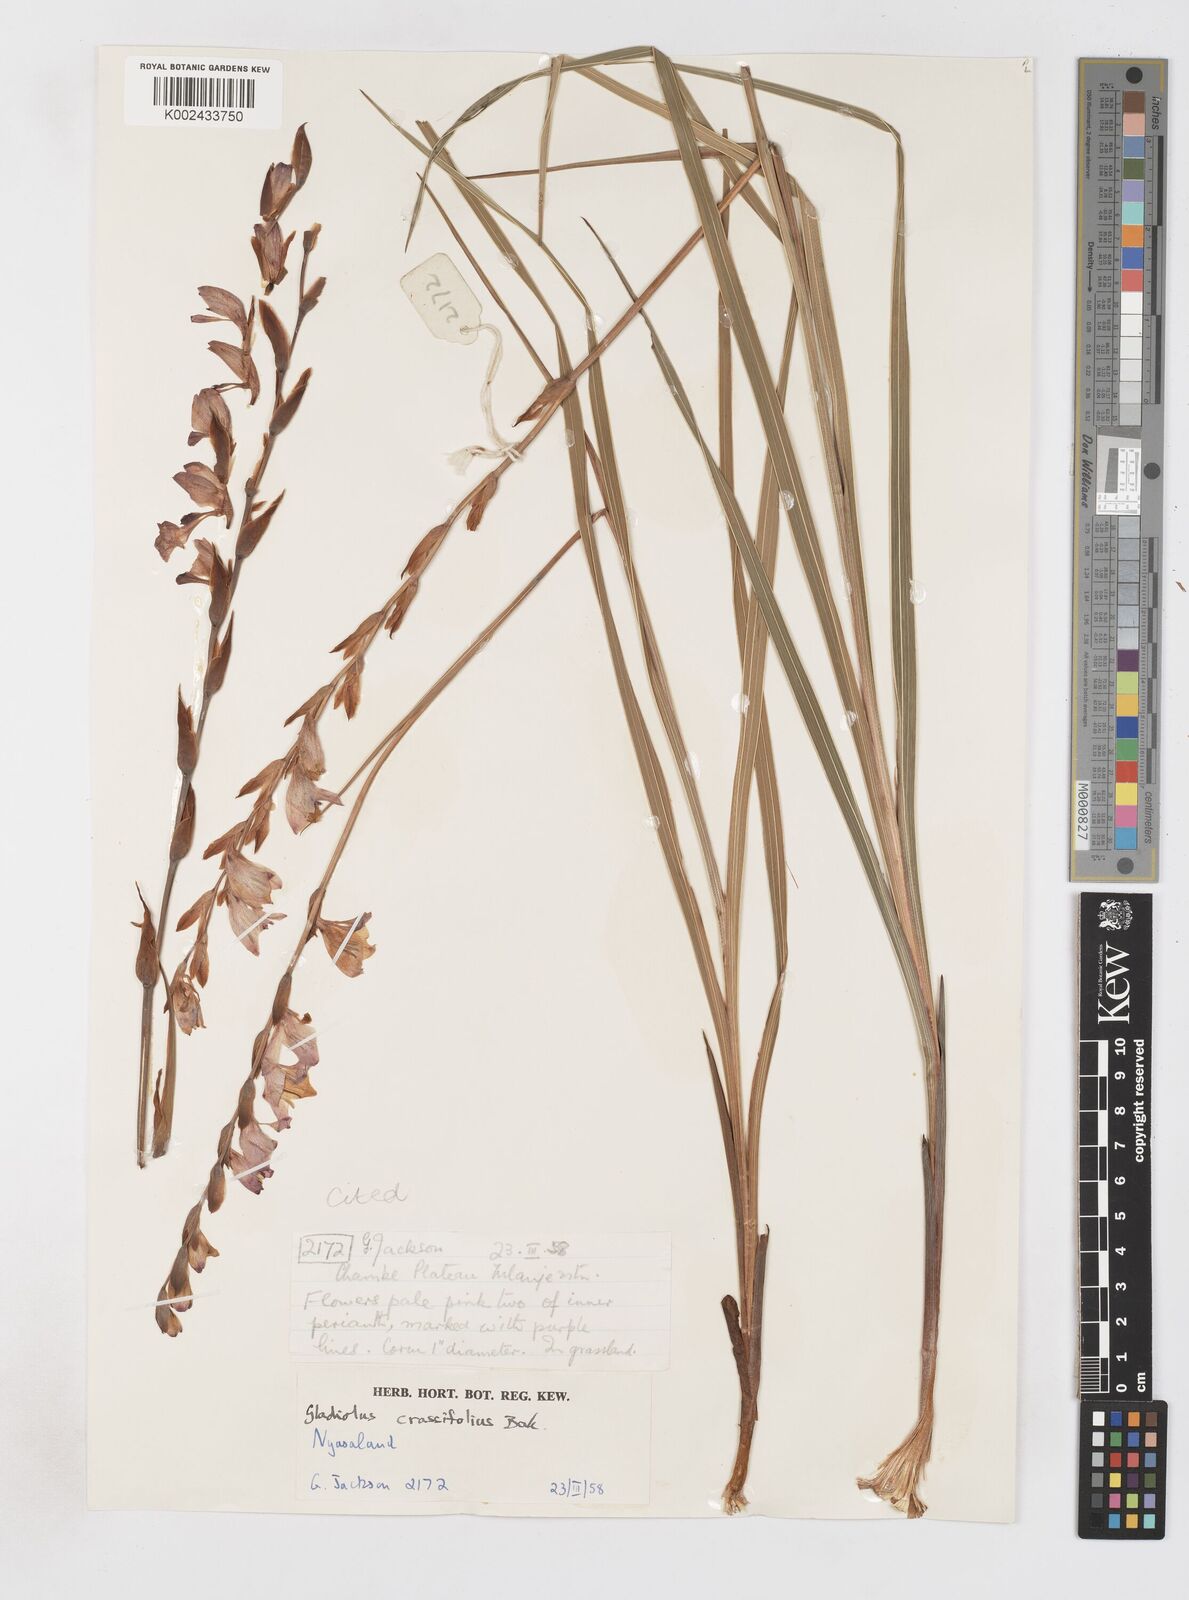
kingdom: Plantae
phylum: Tracheophyta
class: Liliopsida
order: Asparagales
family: Iridaceae
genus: Gladiolus
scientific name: Gladiolus crassifolius
